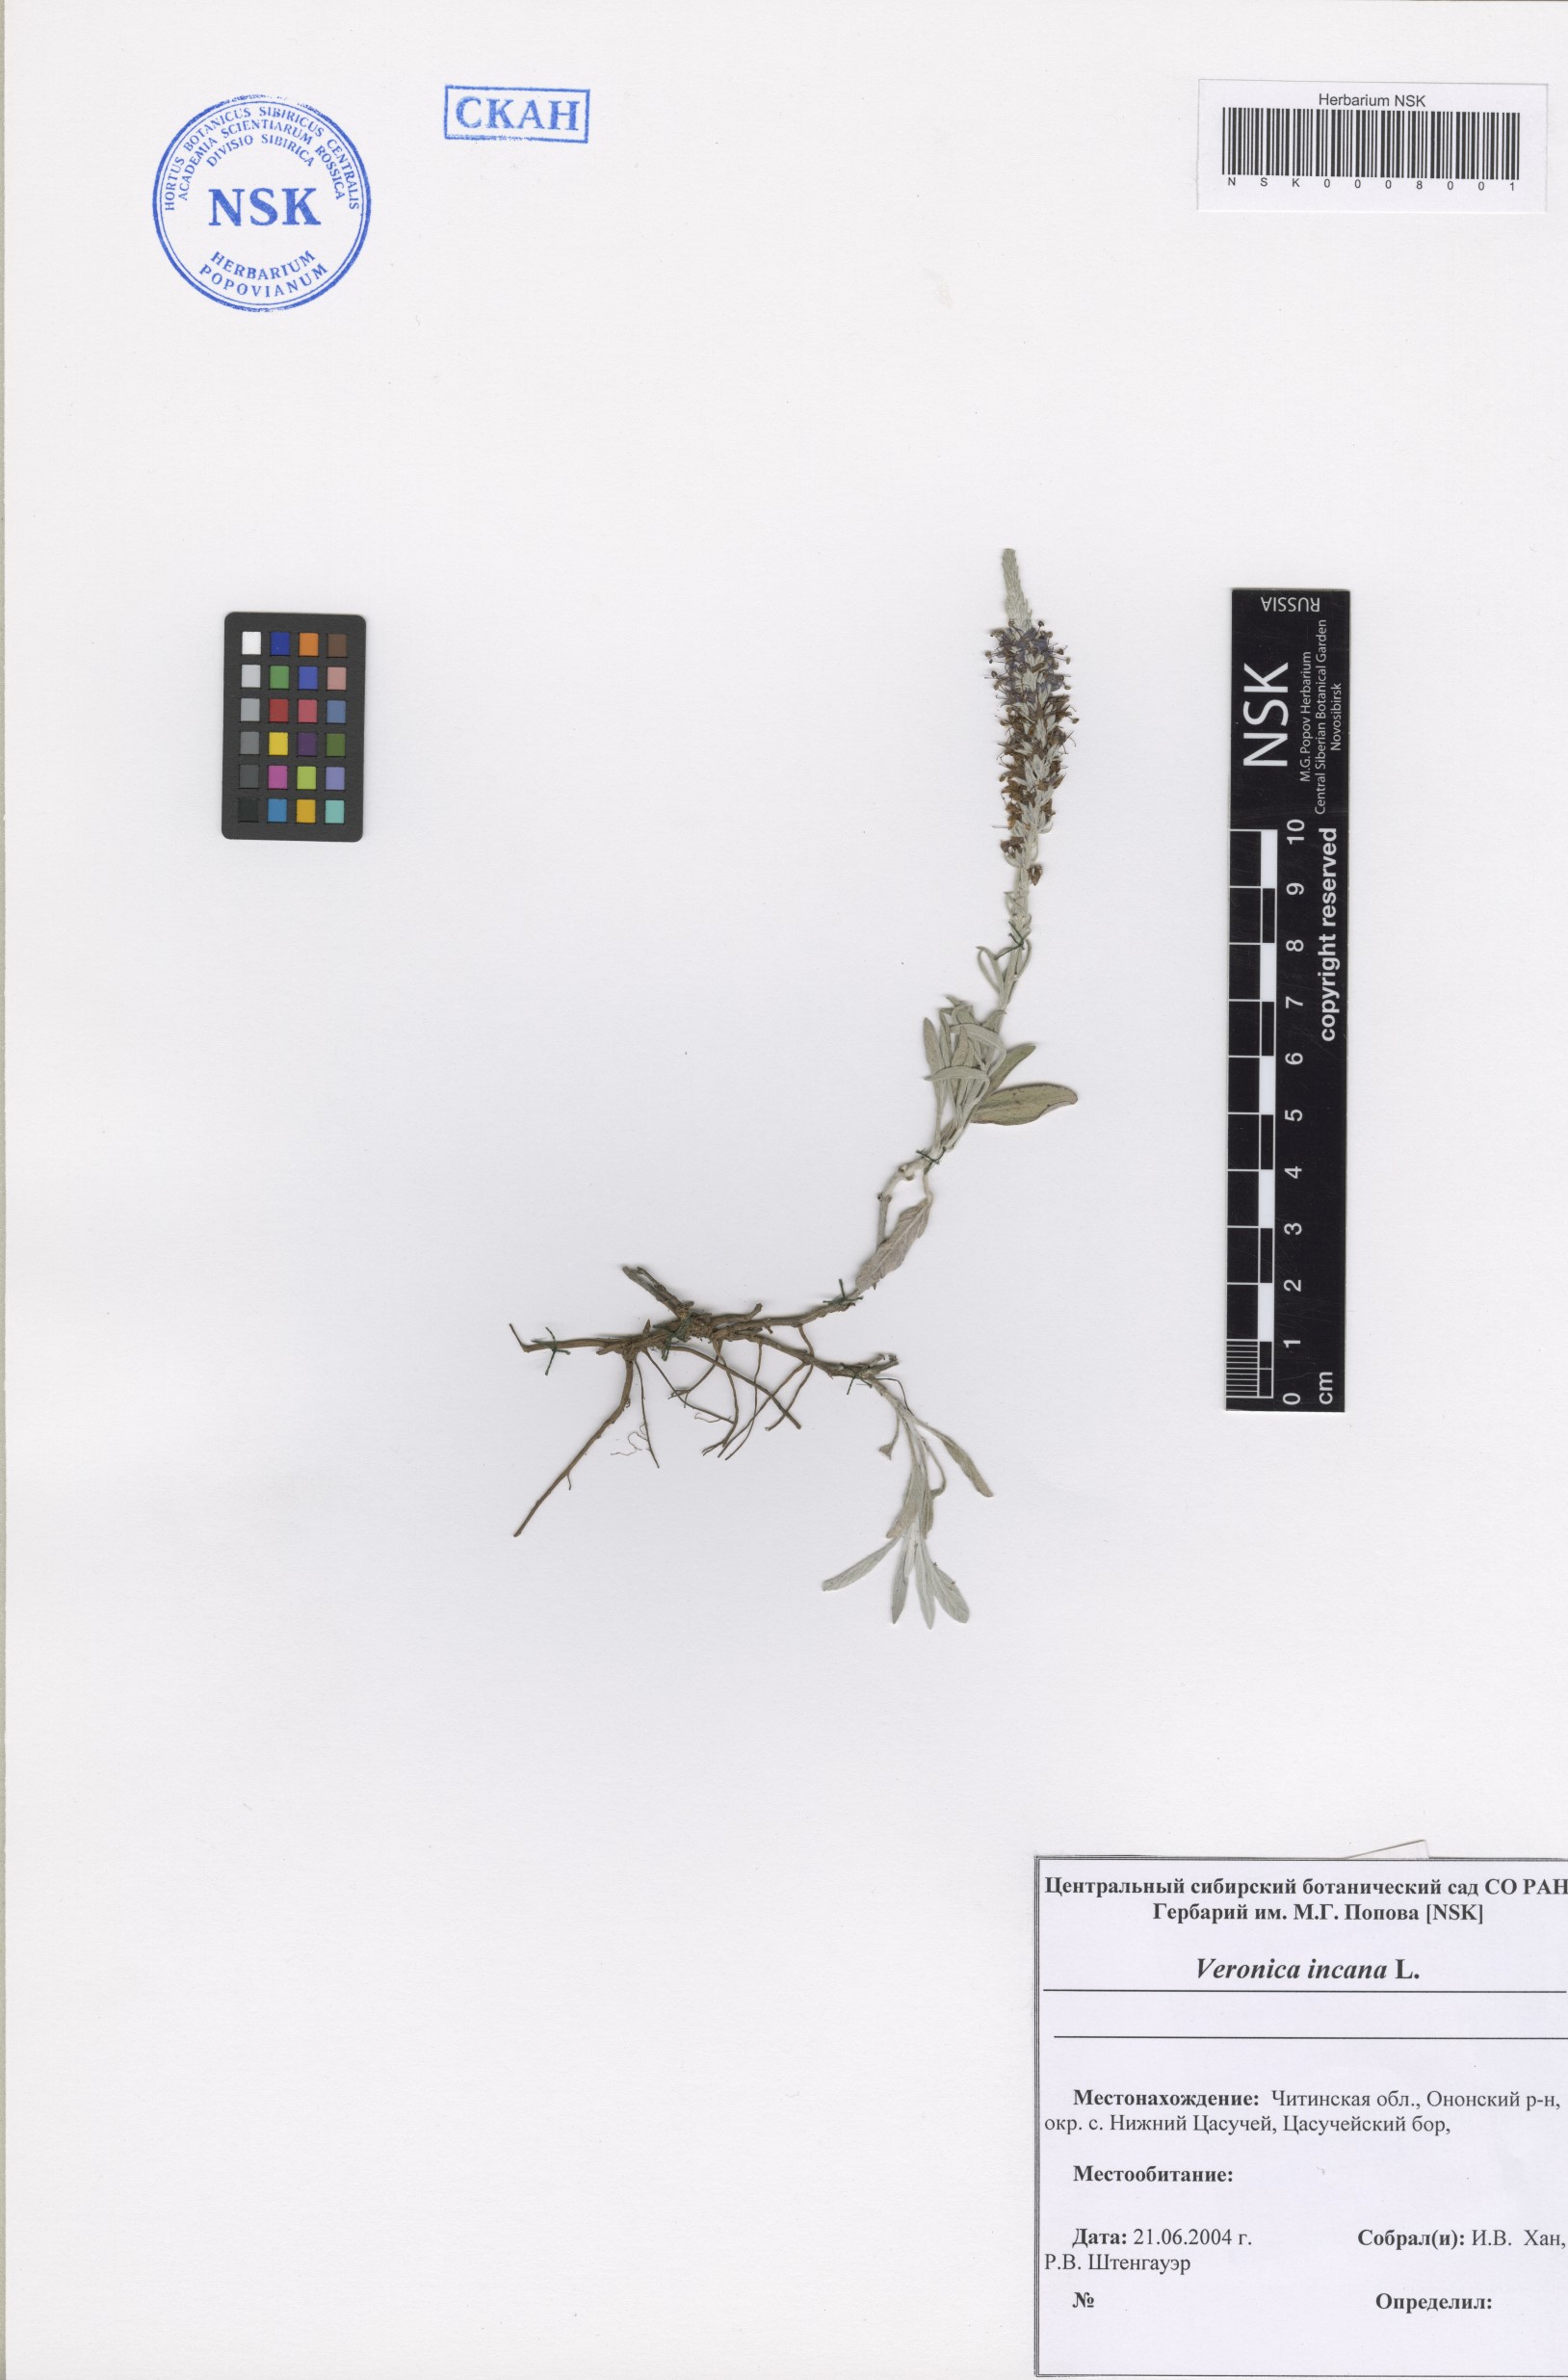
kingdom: Plantae
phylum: Tracheophyta
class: Magnoliopsida
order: Lamiales
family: Plantaginaceae
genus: Veronica
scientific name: Veronica incana
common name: Silver speedwell
